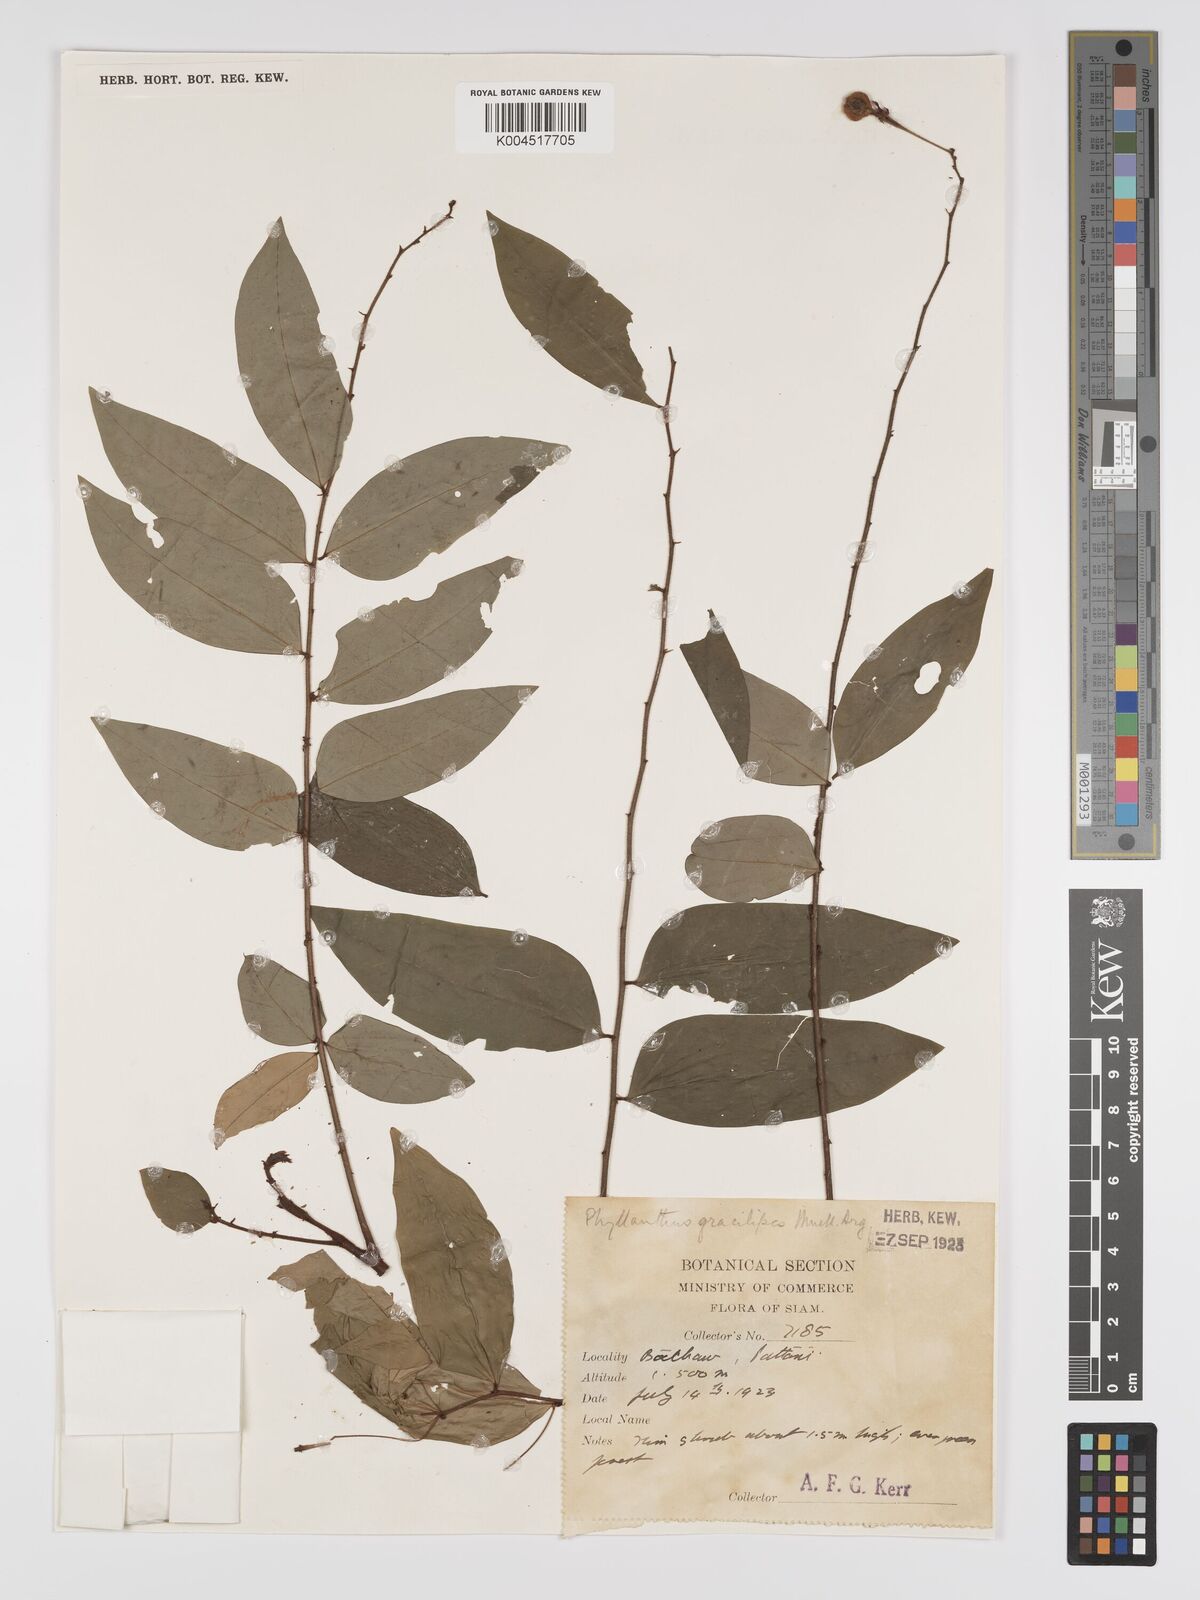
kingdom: Plantae
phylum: Tracheophyta
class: Magnoliopsida
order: Malpighiales
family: Phyllanthaceae
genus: Phyllanthus
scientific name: Phyllanthus
